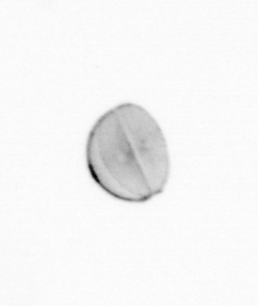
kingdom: Chromista
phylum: Ochrophyta
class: Bacillariophyceae
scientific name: Bacillariophyceae
